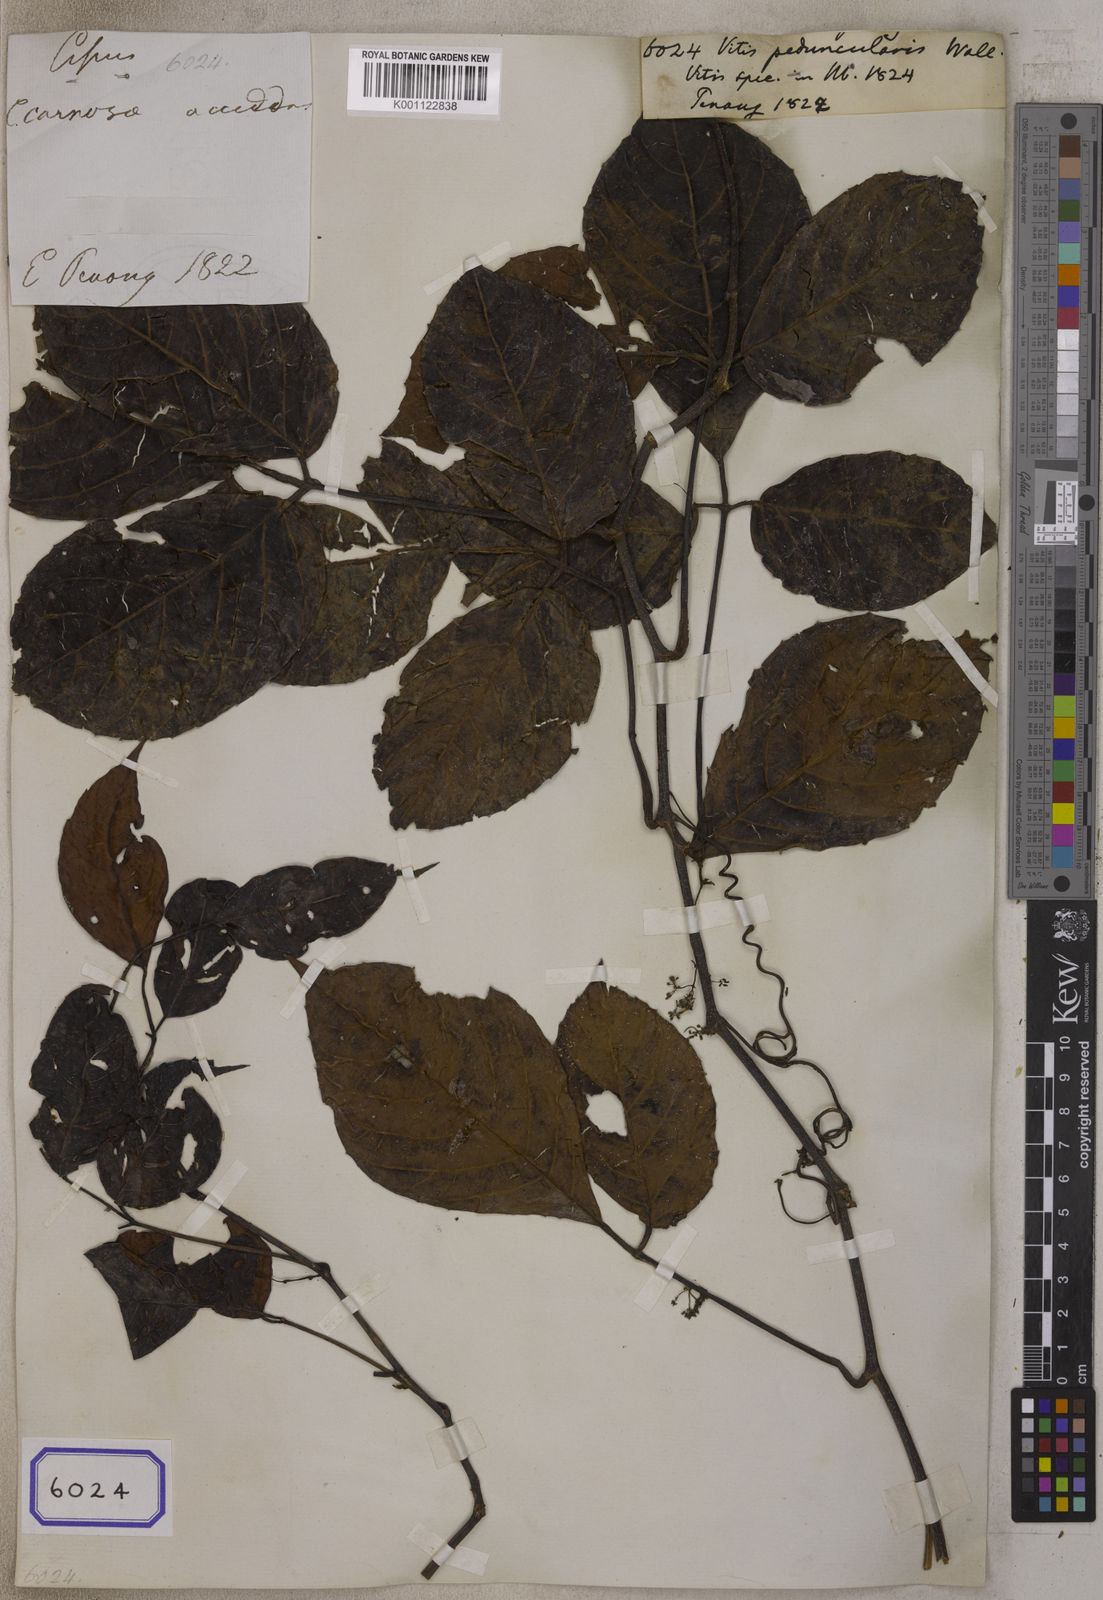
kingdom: Plantae
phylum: Tracheophyta
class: Magnoliopsida
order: Vitales
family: Vitaceae
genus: Vitis
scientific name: Vitis
